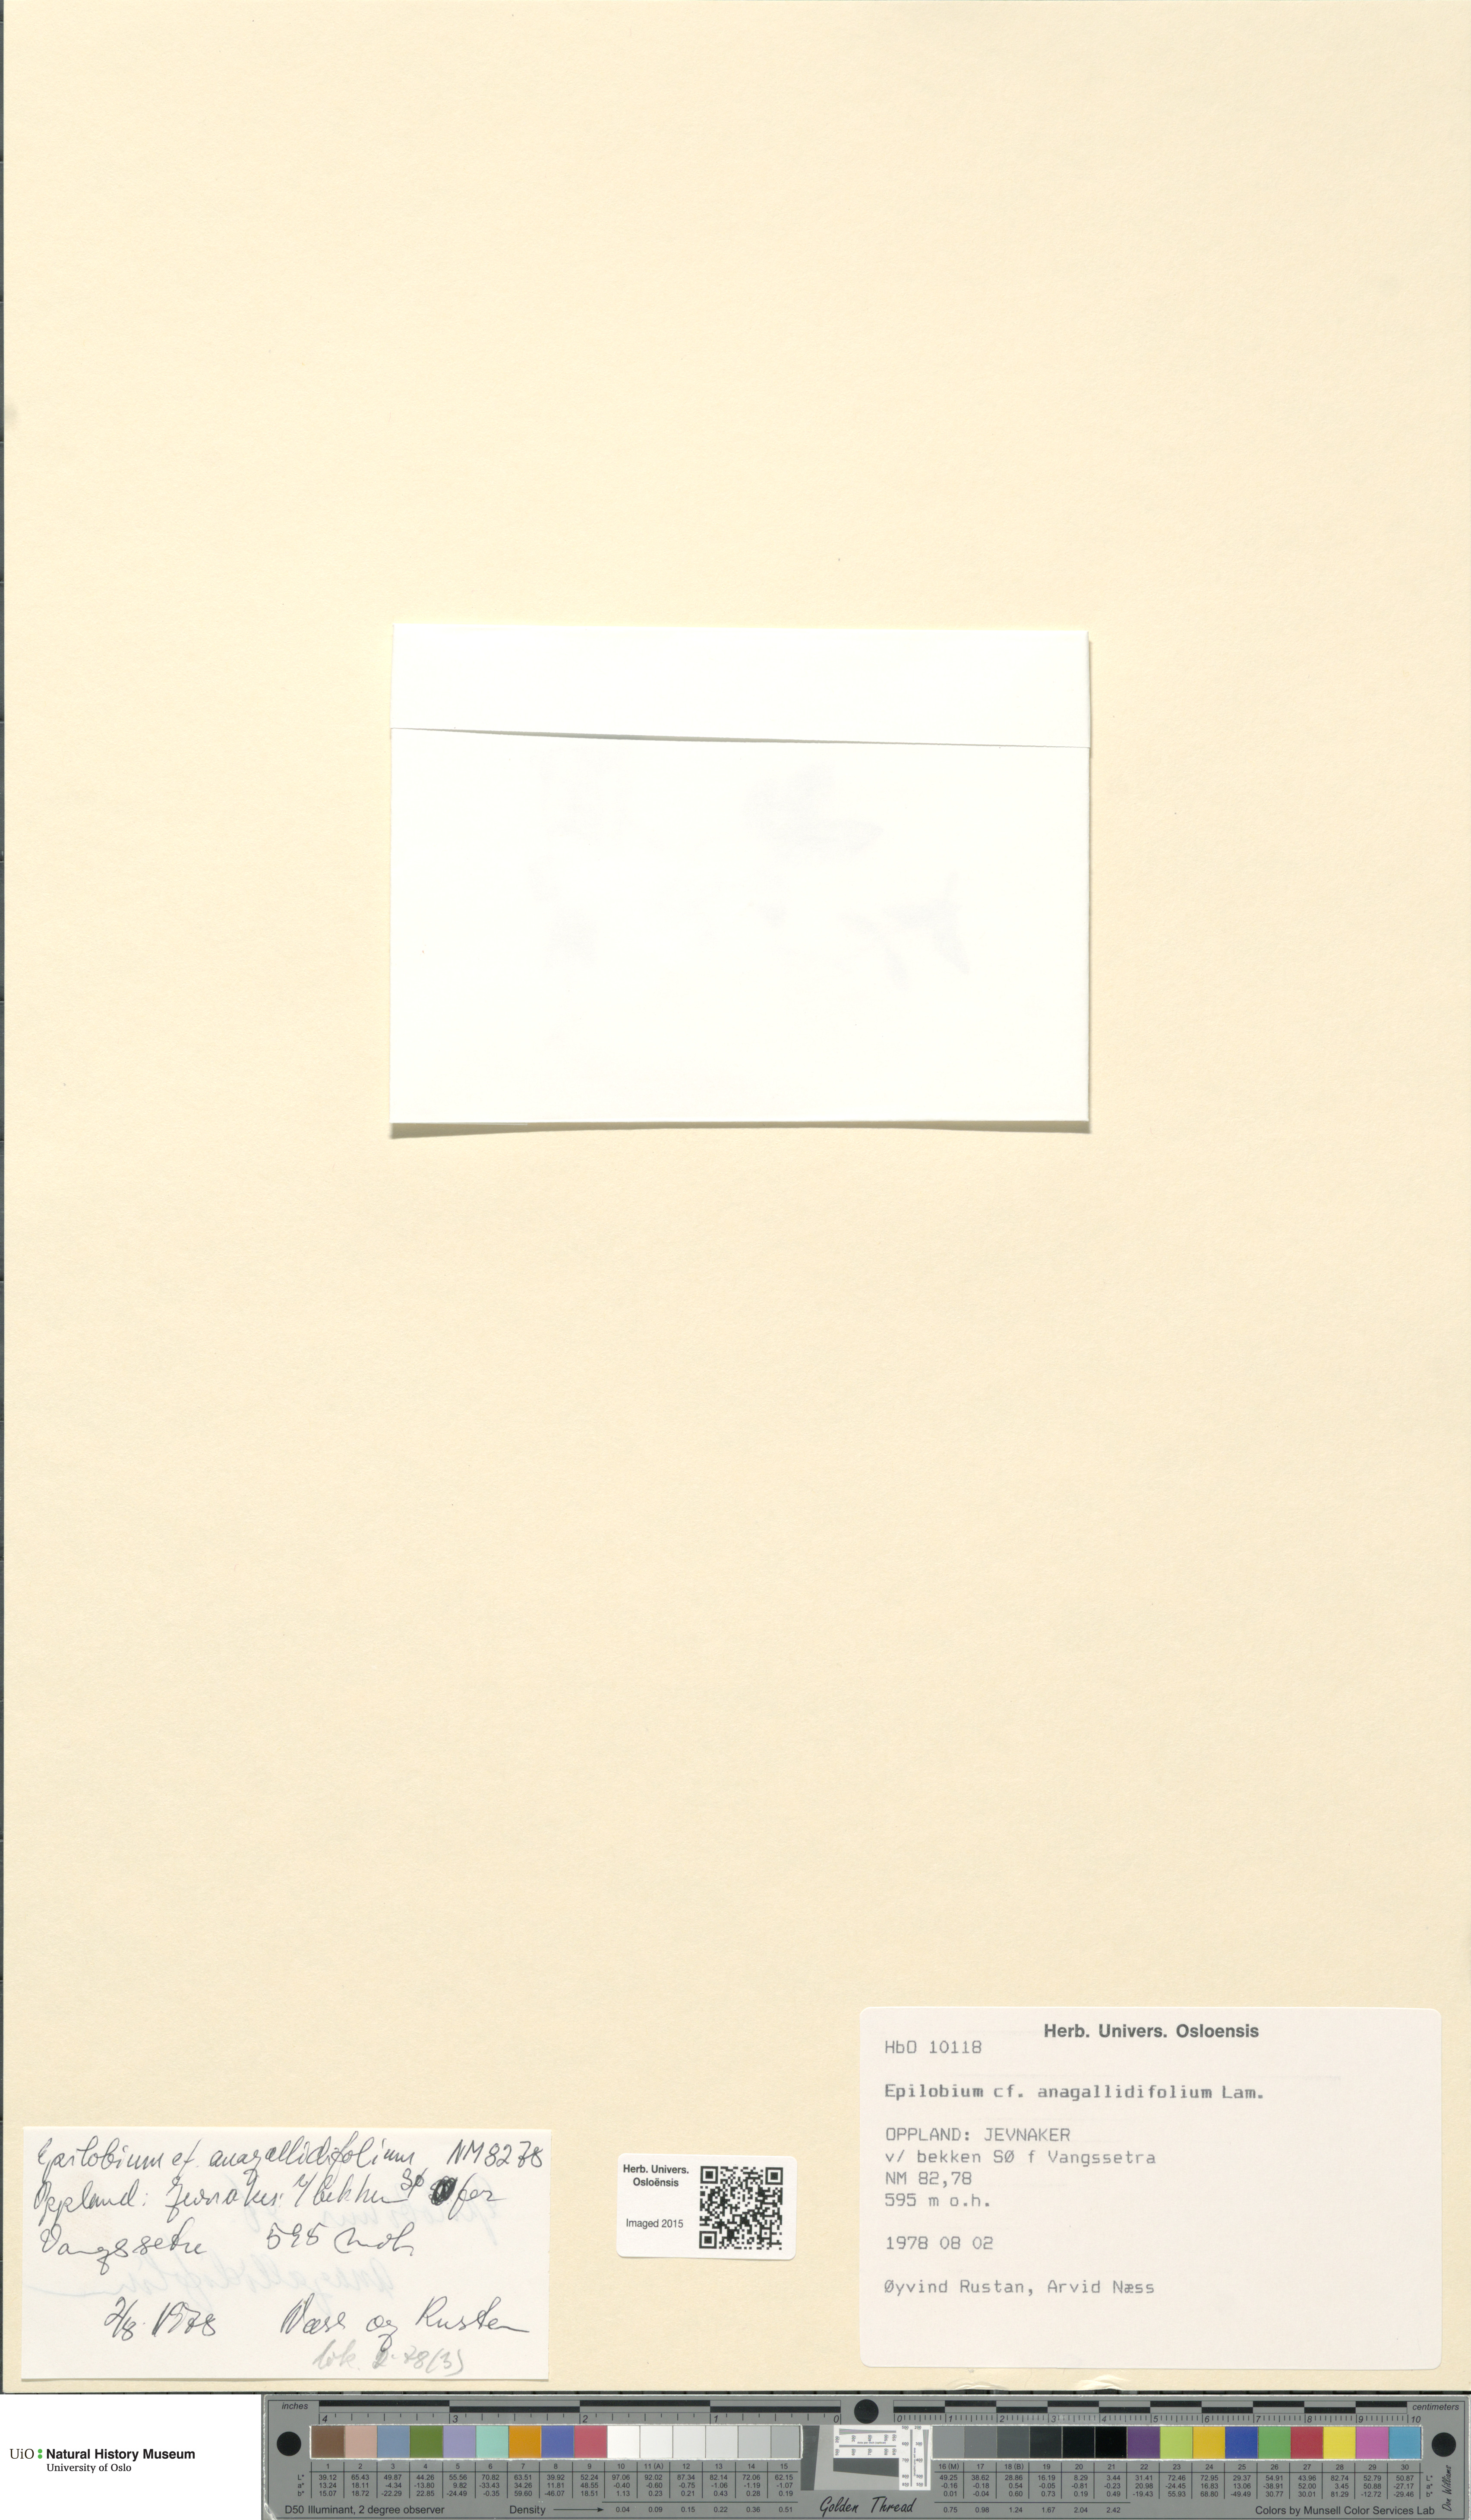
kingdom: Plantae
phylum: Tracheophyta
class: Magnoliopsida
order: Myrtales
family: Onagraceae
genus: Epilobium
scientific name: Epilobium anagallidifolium
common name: Alpine willowherb
